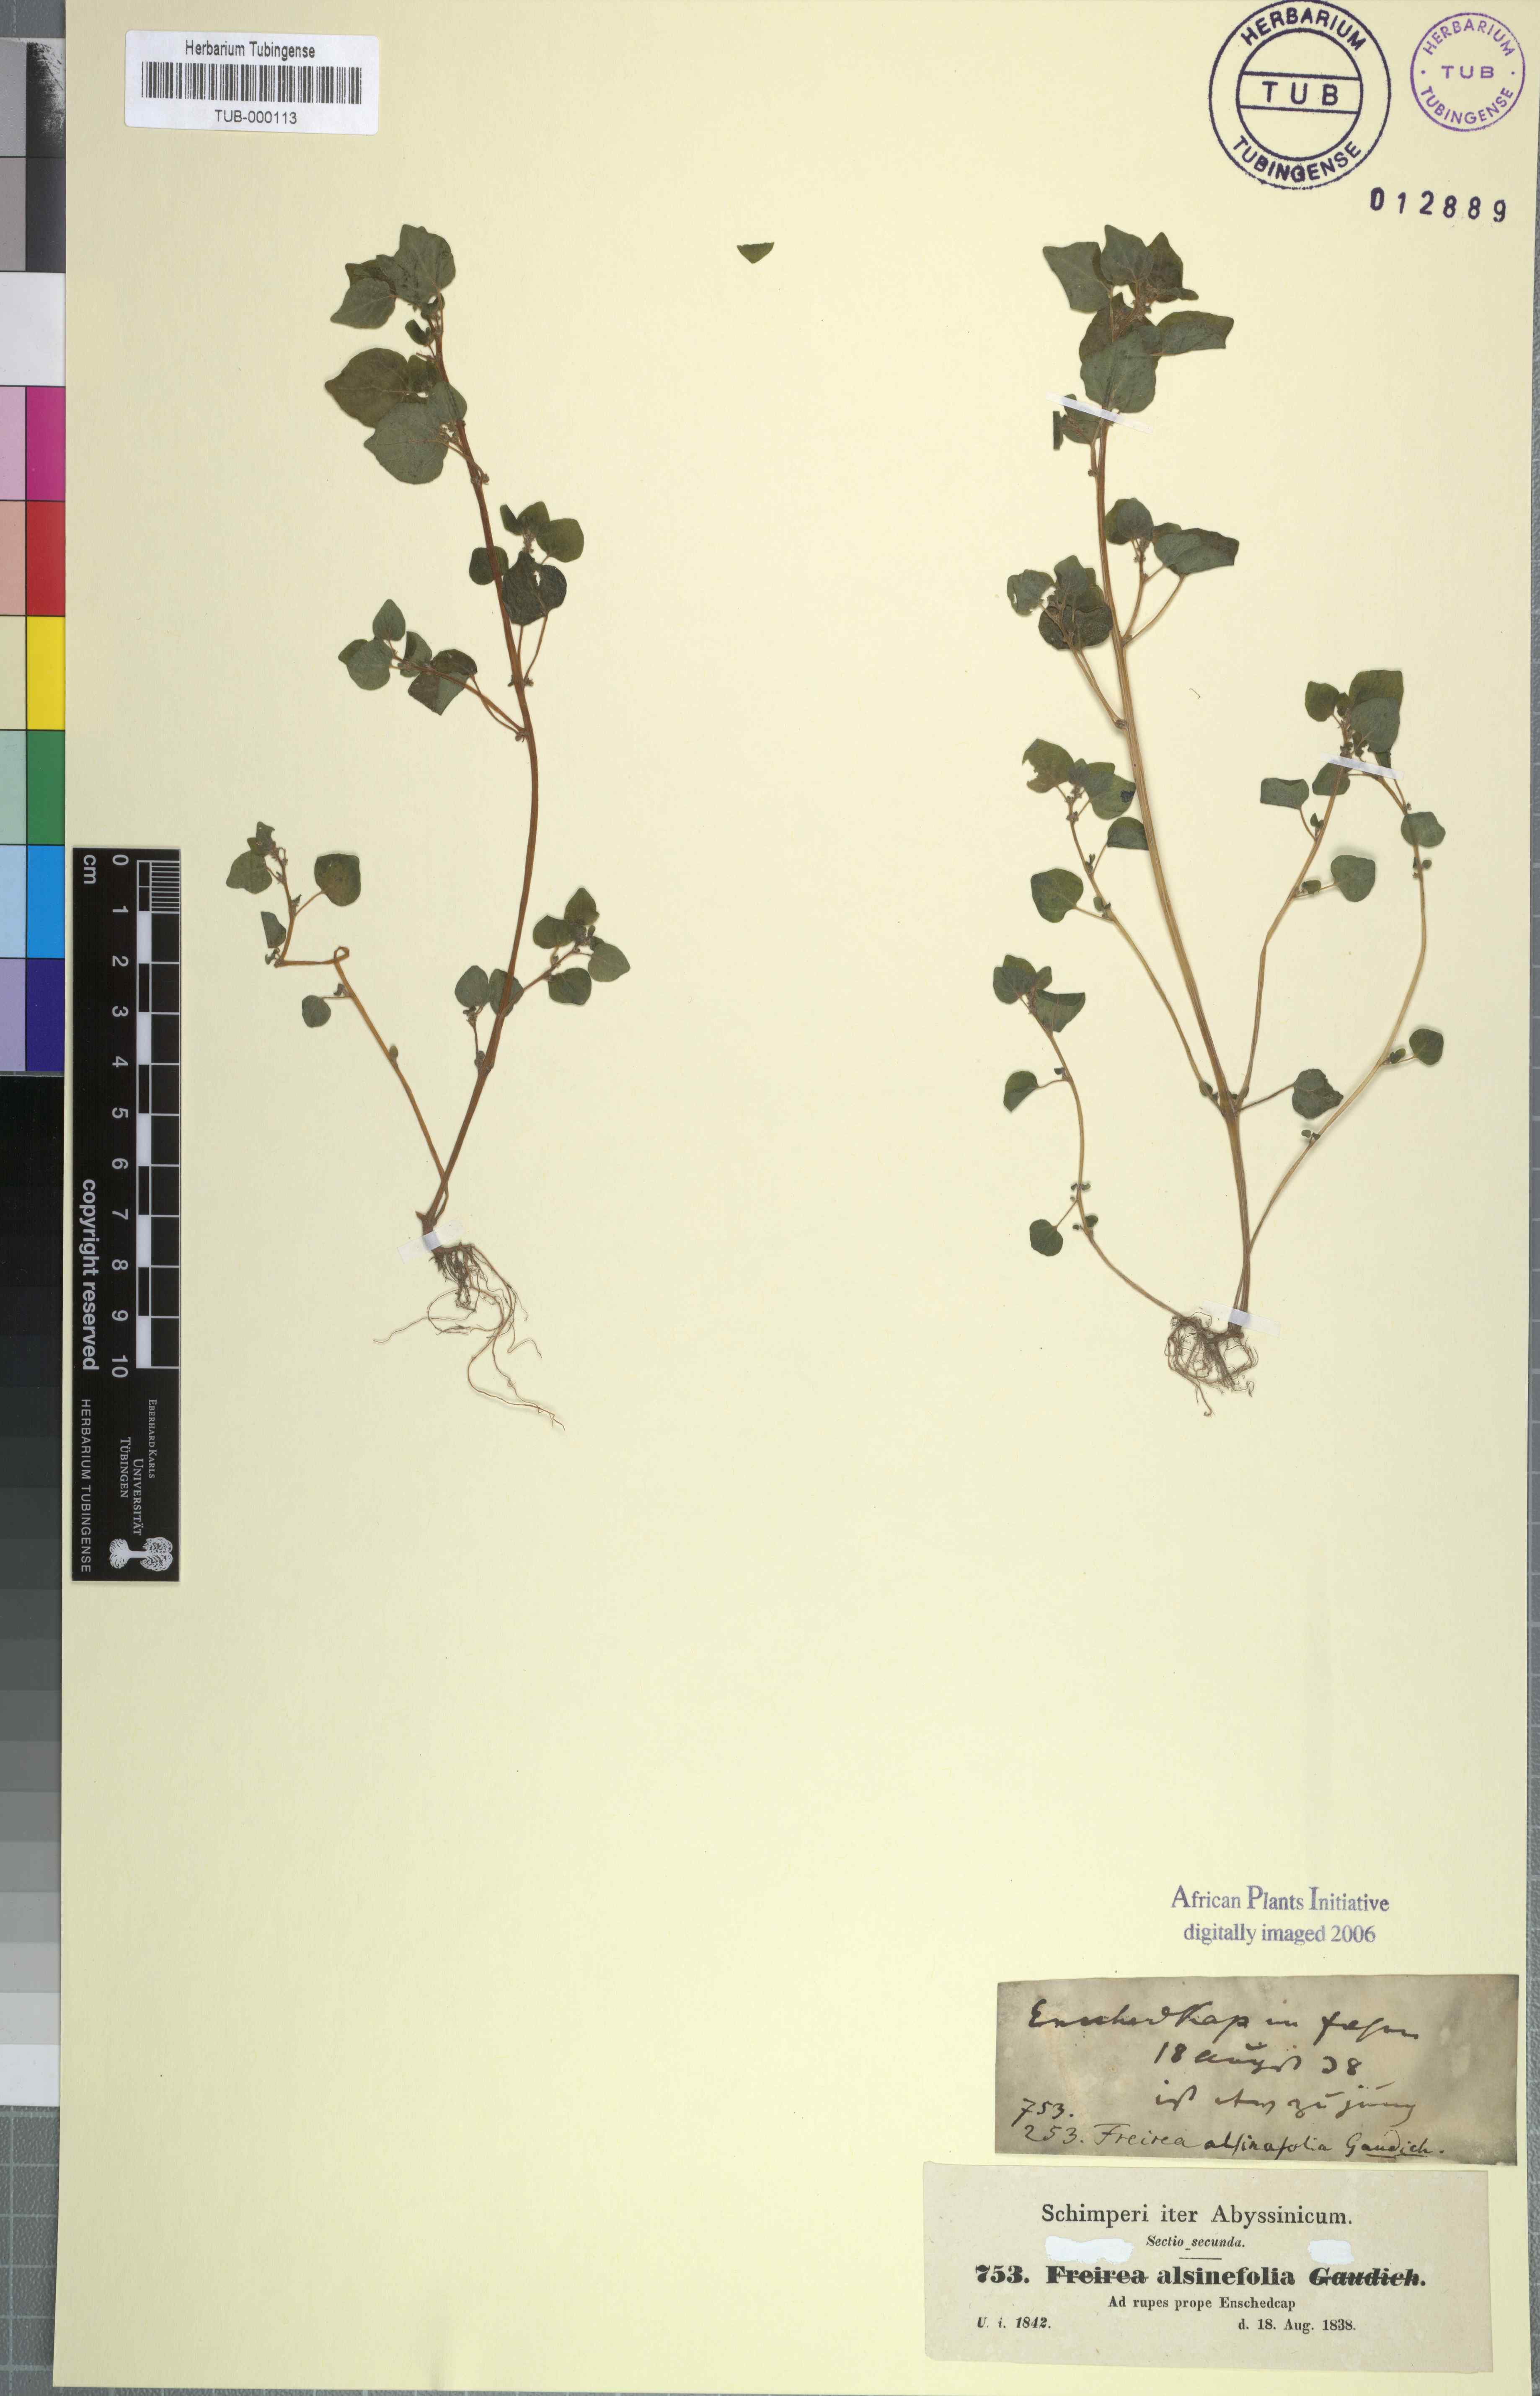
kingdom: Plantae
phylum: Tracheophyta
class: Magnoliopsida
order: Rosales
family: Urticaceae
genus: Parietaria
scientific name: Parietaria alsinefolia
